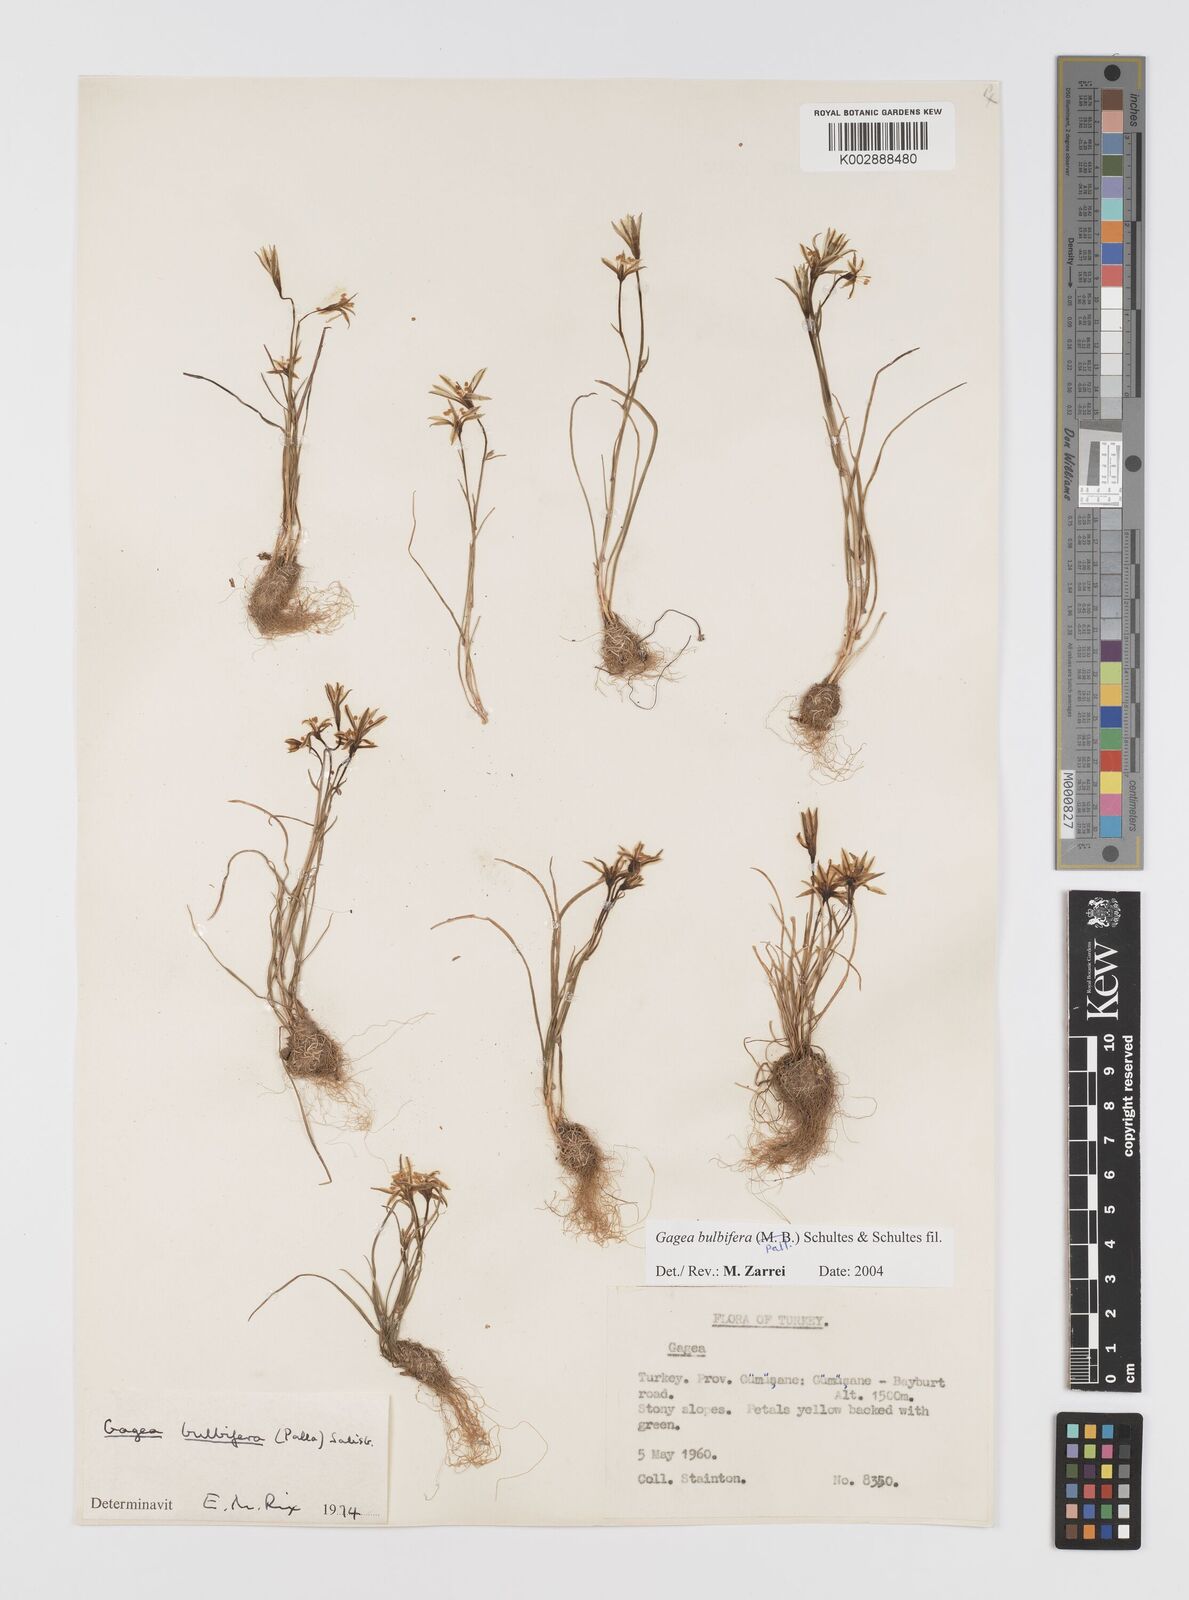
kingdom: Plantae
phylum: Tracheophyta
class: Liliopsida
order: Liliales
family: Liliaceae
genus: Gagea
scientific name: Gagea bulbifera
